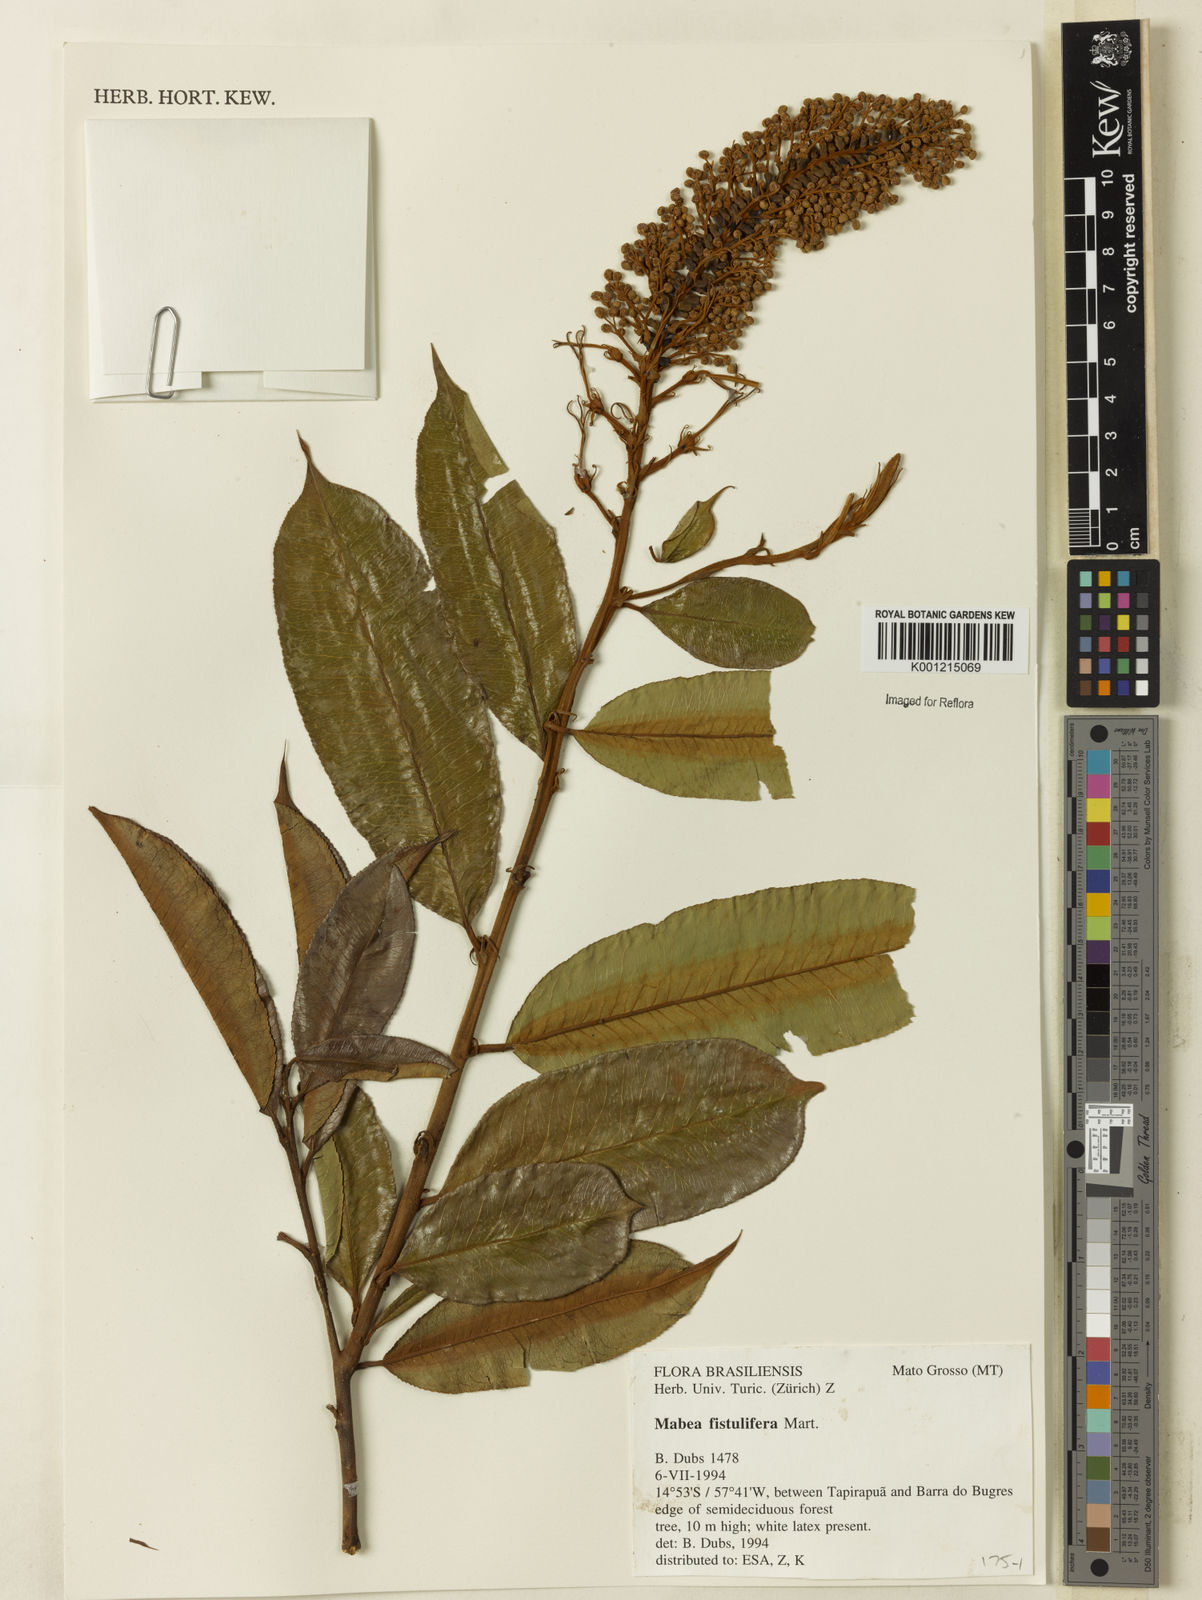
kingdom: Plantae
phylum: Tracheophyta
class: Magnoliopsida
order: Malpighiales
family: Euphorbiaceae
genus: Mabea
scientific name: Mabea fistulifera
